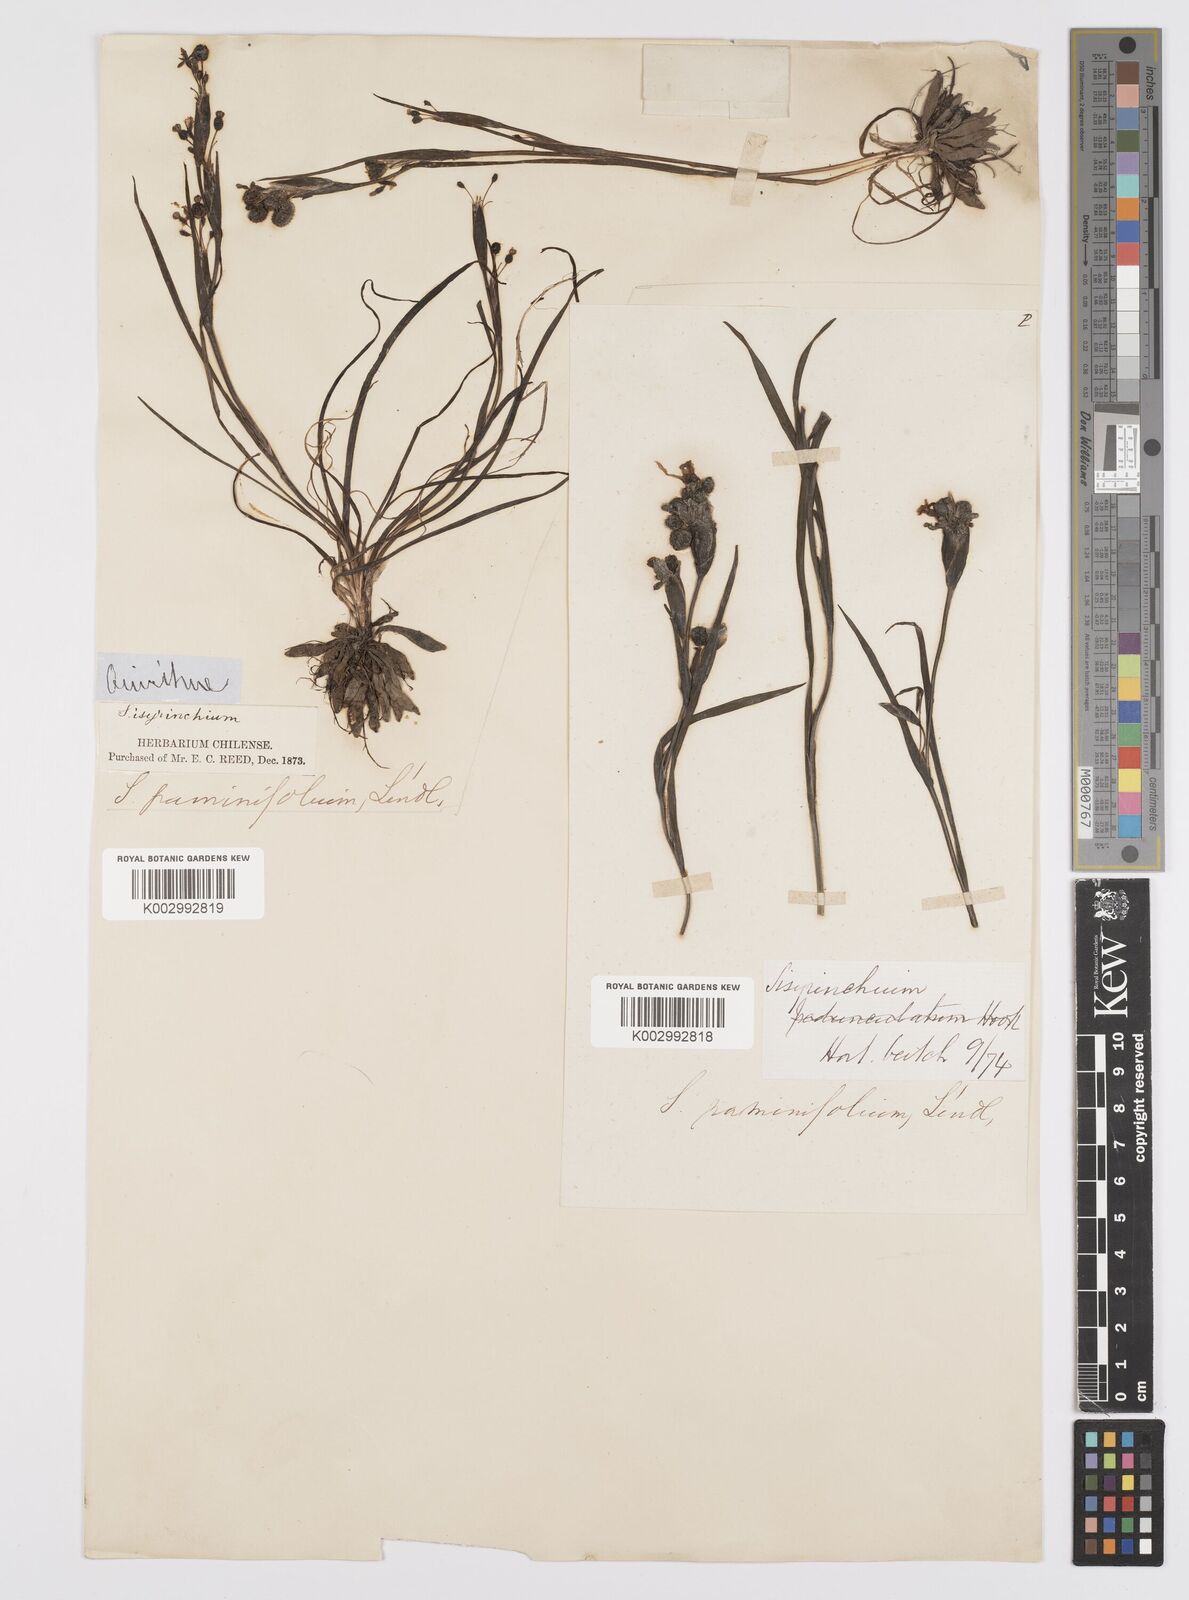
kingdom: Plantae
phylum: Tracheophyta
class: Liliopsida
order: Asparagales
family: Iridaceae
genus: Sisyrinchium
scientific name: Sisyrinchium graminifolium
